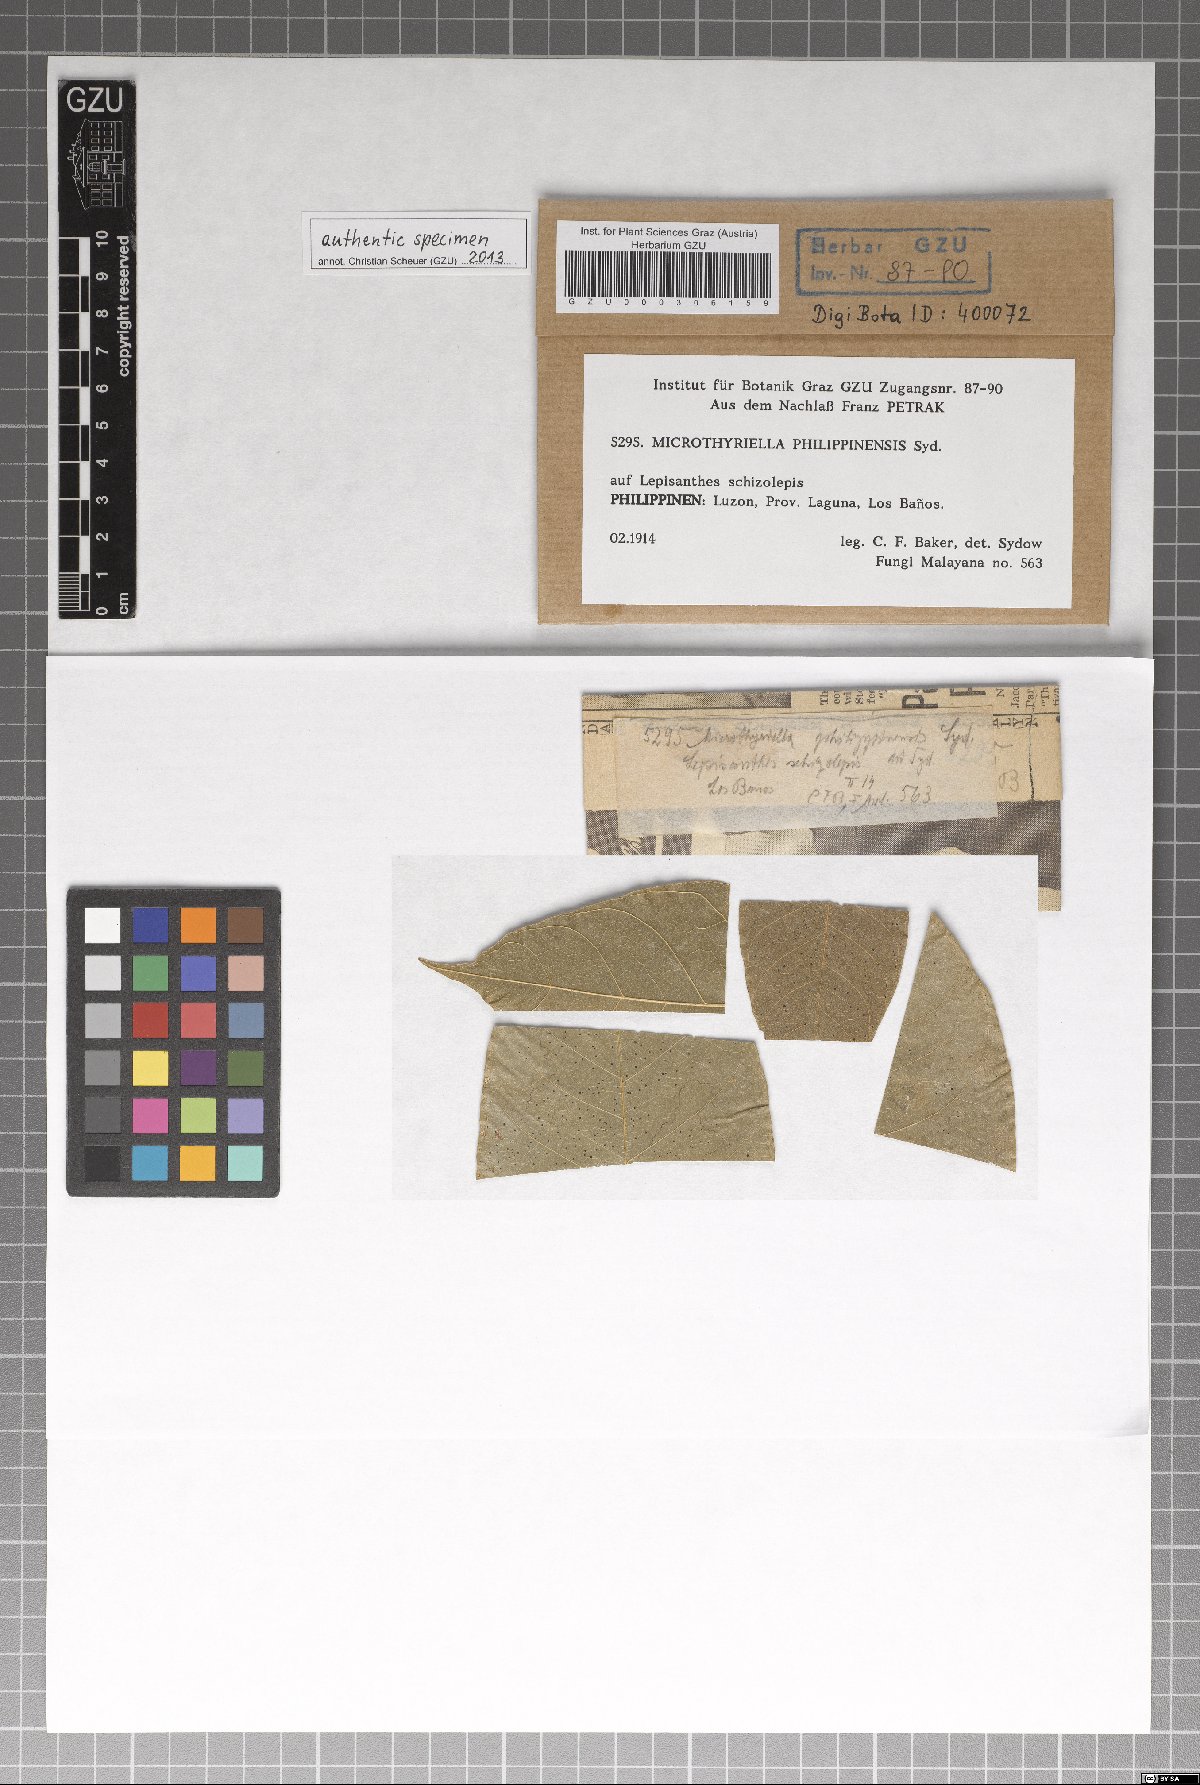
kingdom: Fungi
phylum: Ascomycota
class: Dothideomycetes
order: Mycosphaerellales
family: Schizothyriaceae
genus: Microthyriella
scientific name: Microthyriella philippinensis
